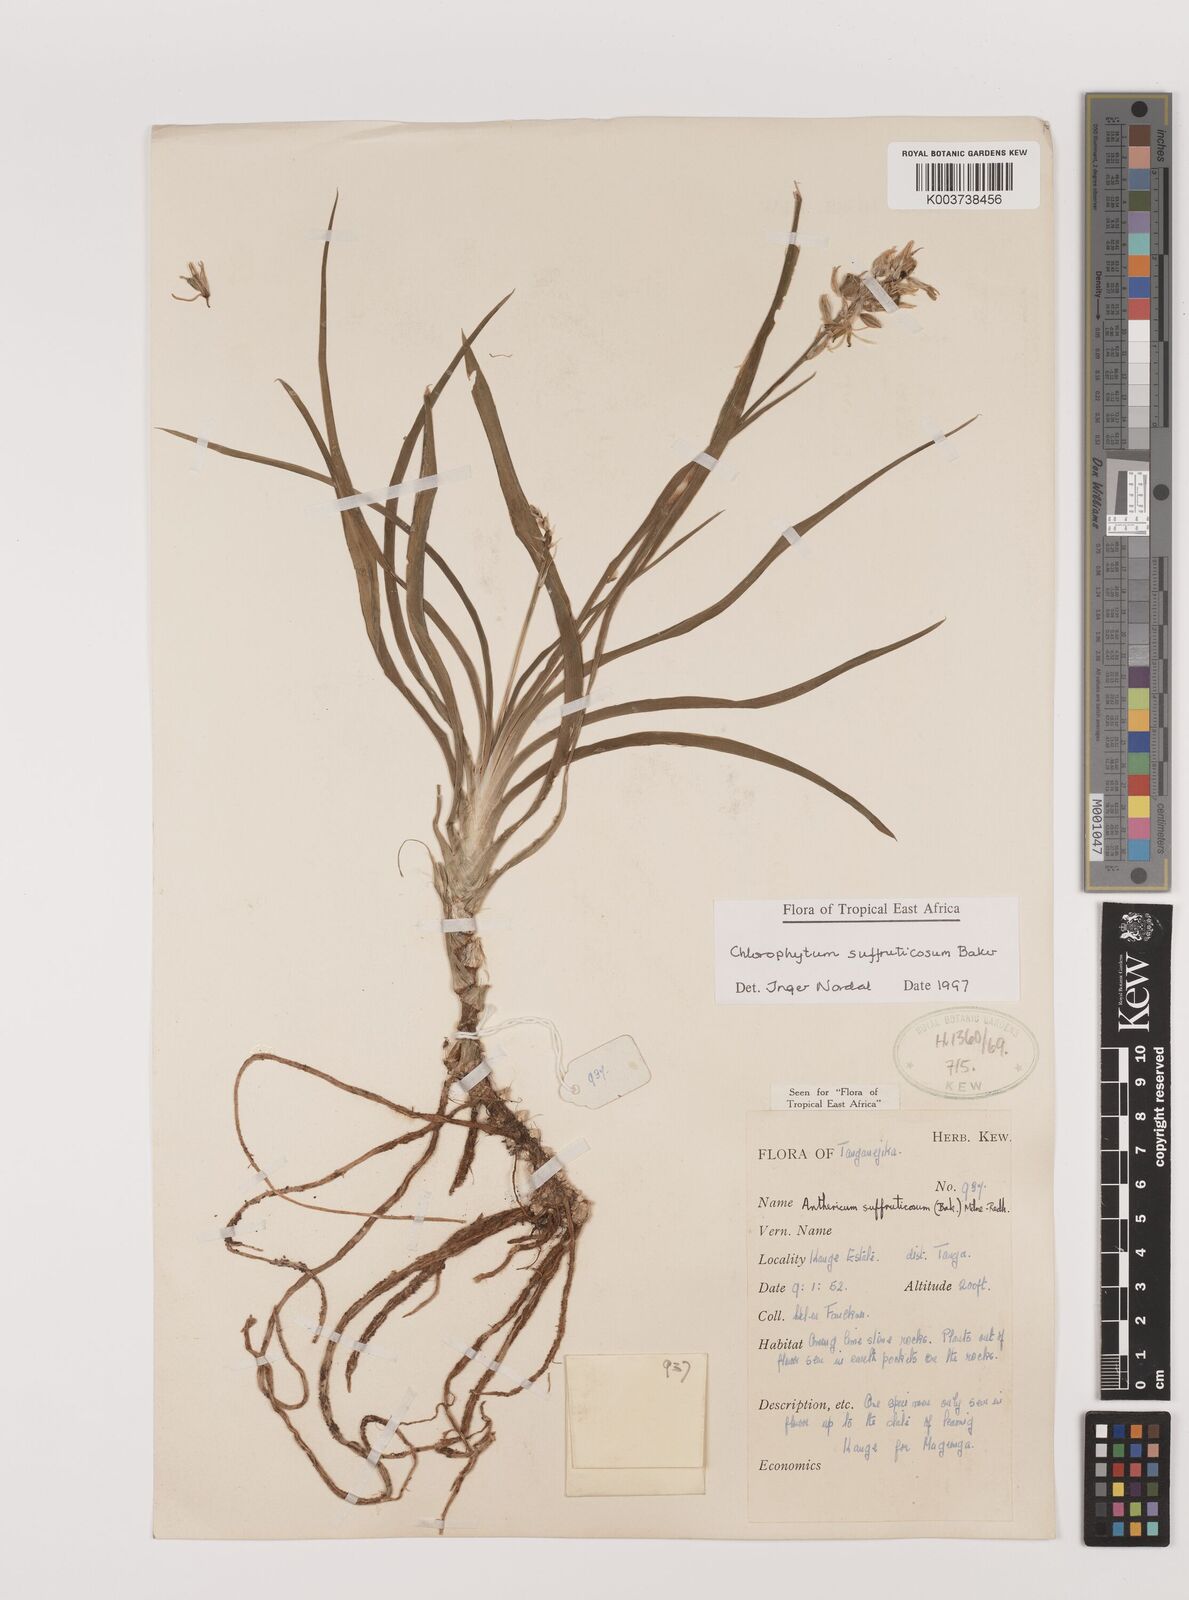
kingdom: Plantae
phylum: Tracheophyta
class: Liliopsida
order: Asparagales
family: Asparagaceae
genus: Chlorophytum
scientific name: Chlorophytum suffruticosum
